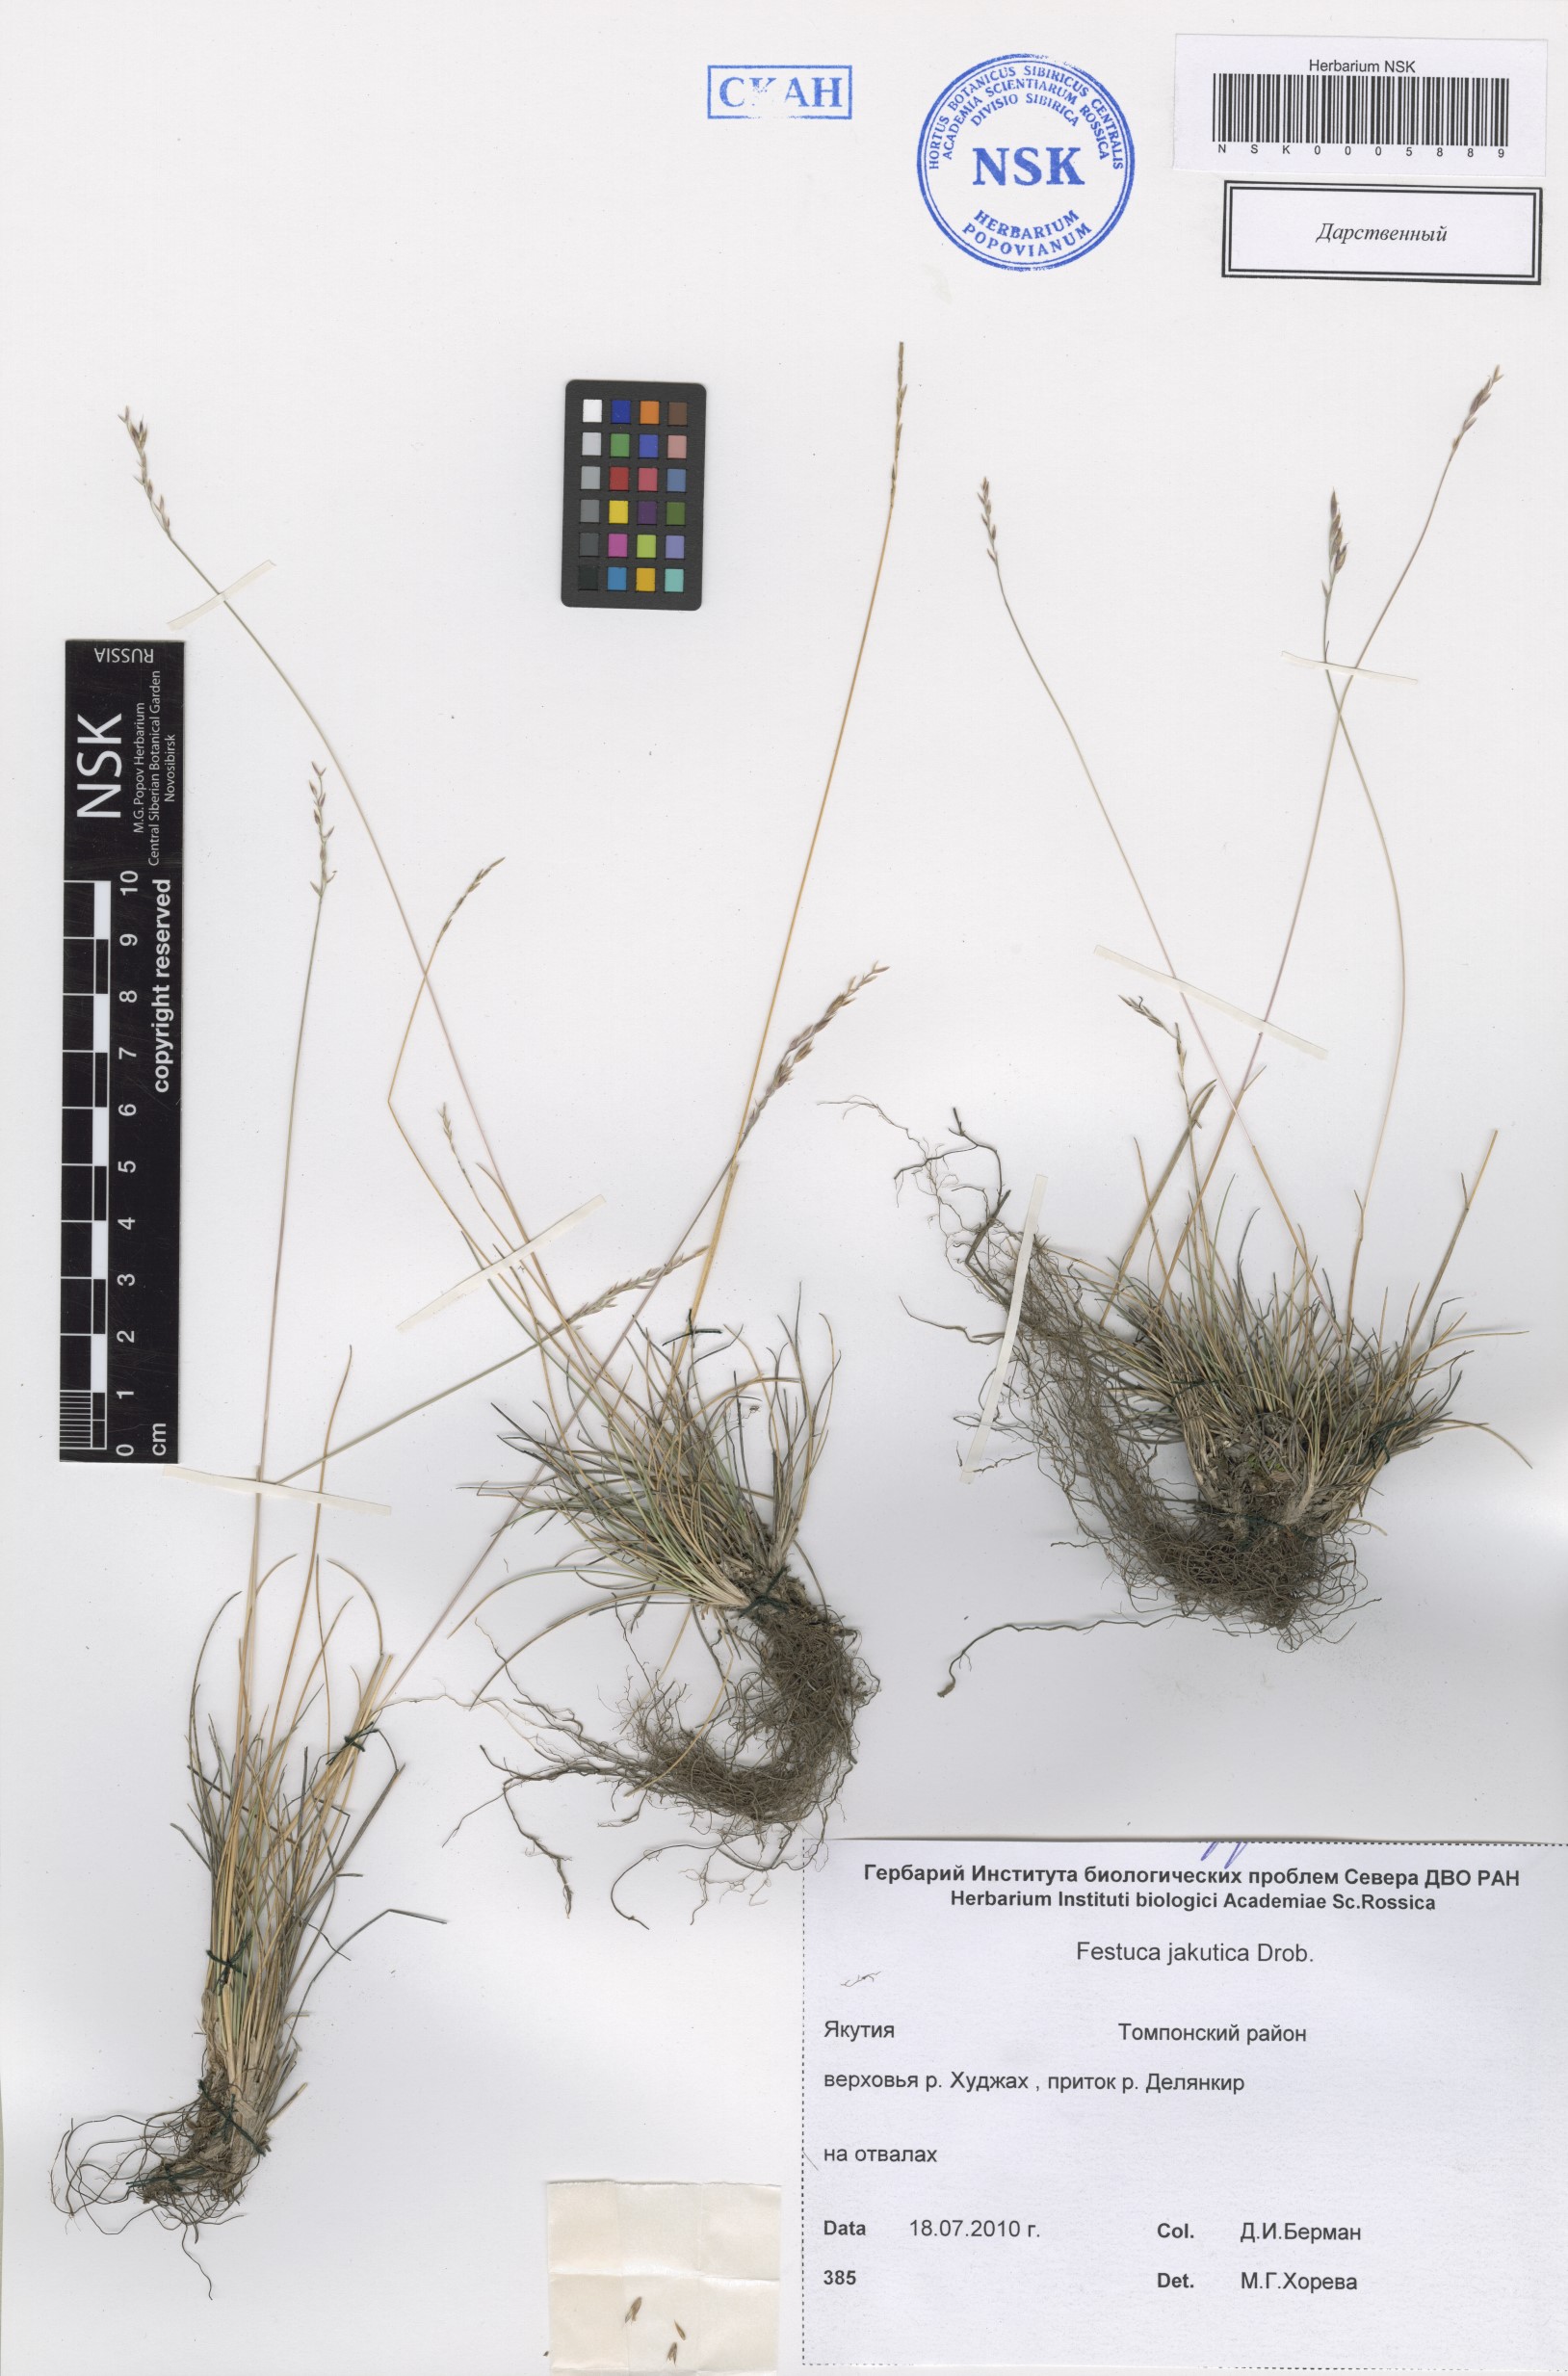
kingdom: Plantae
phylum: Tracheophyta
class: Liliopsida
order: Poales
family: Poaceae
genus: Festuca
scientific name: Festuca jacutica
